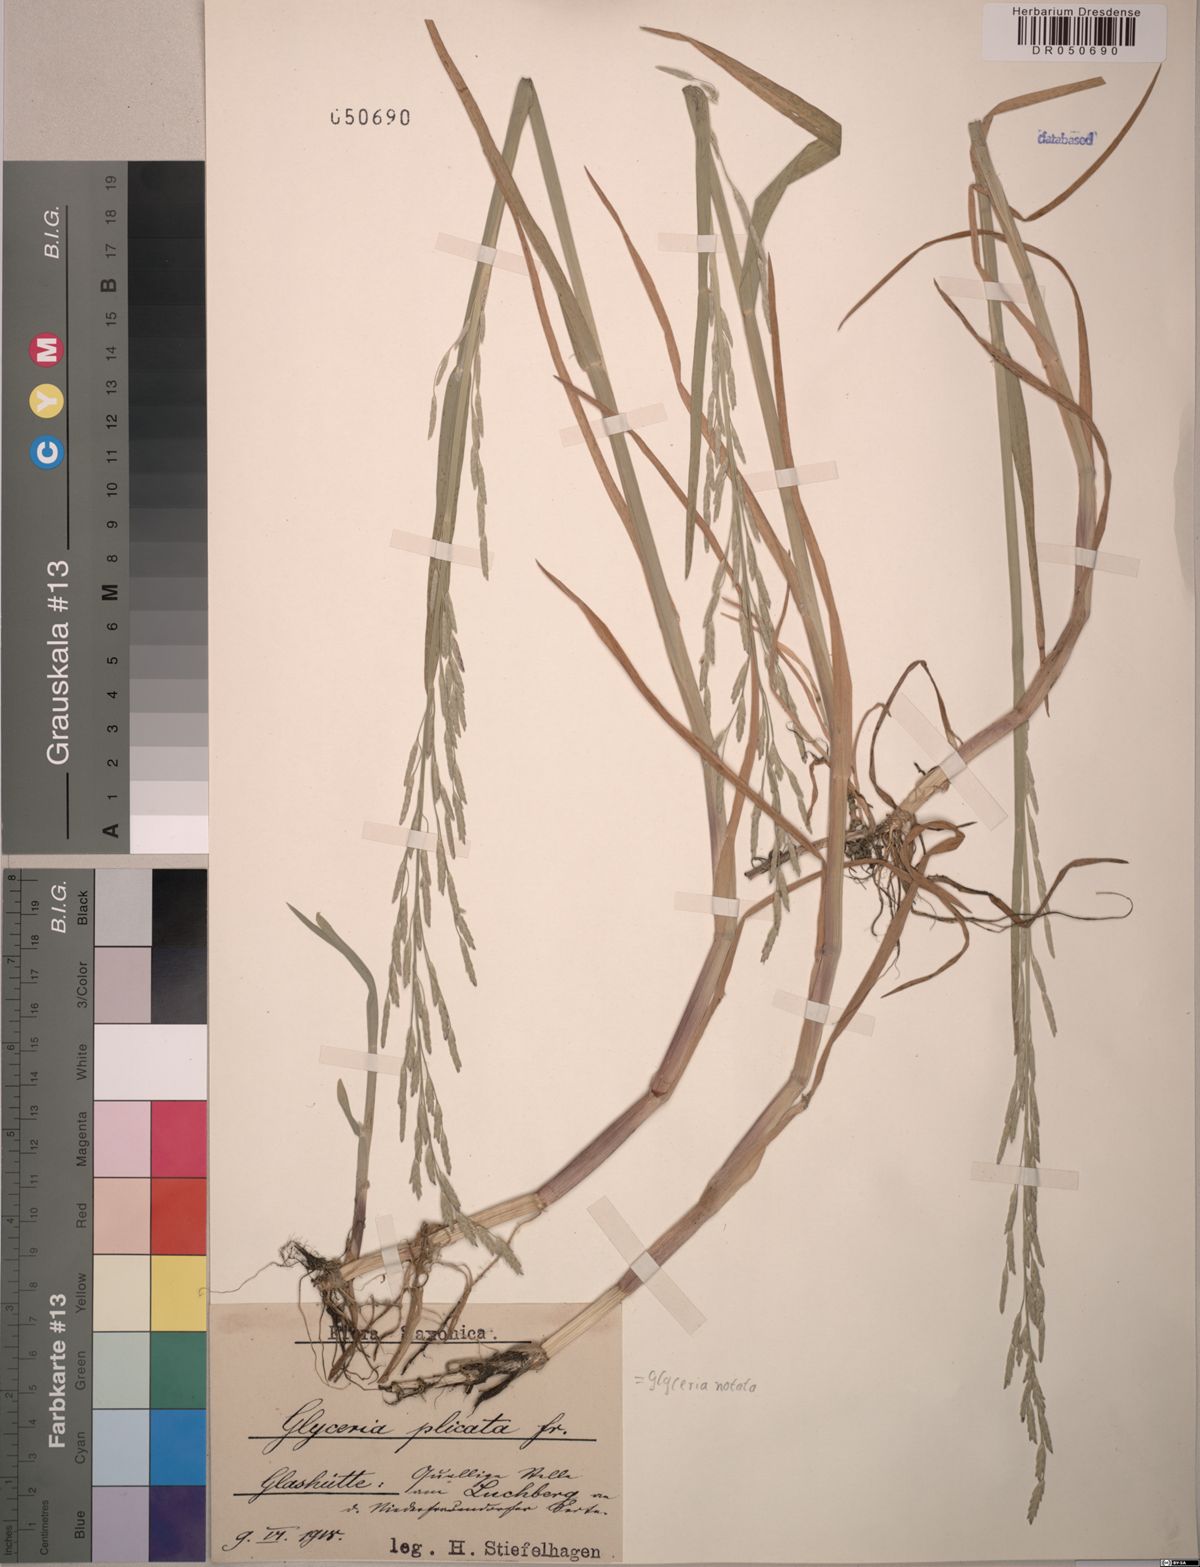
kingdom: Plantae
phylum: Tracheophyta
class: Liliopsida
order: Poales
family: Poaceae
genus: Glyceria
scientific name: Glyceria notata
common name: Plicate sweet-grass
